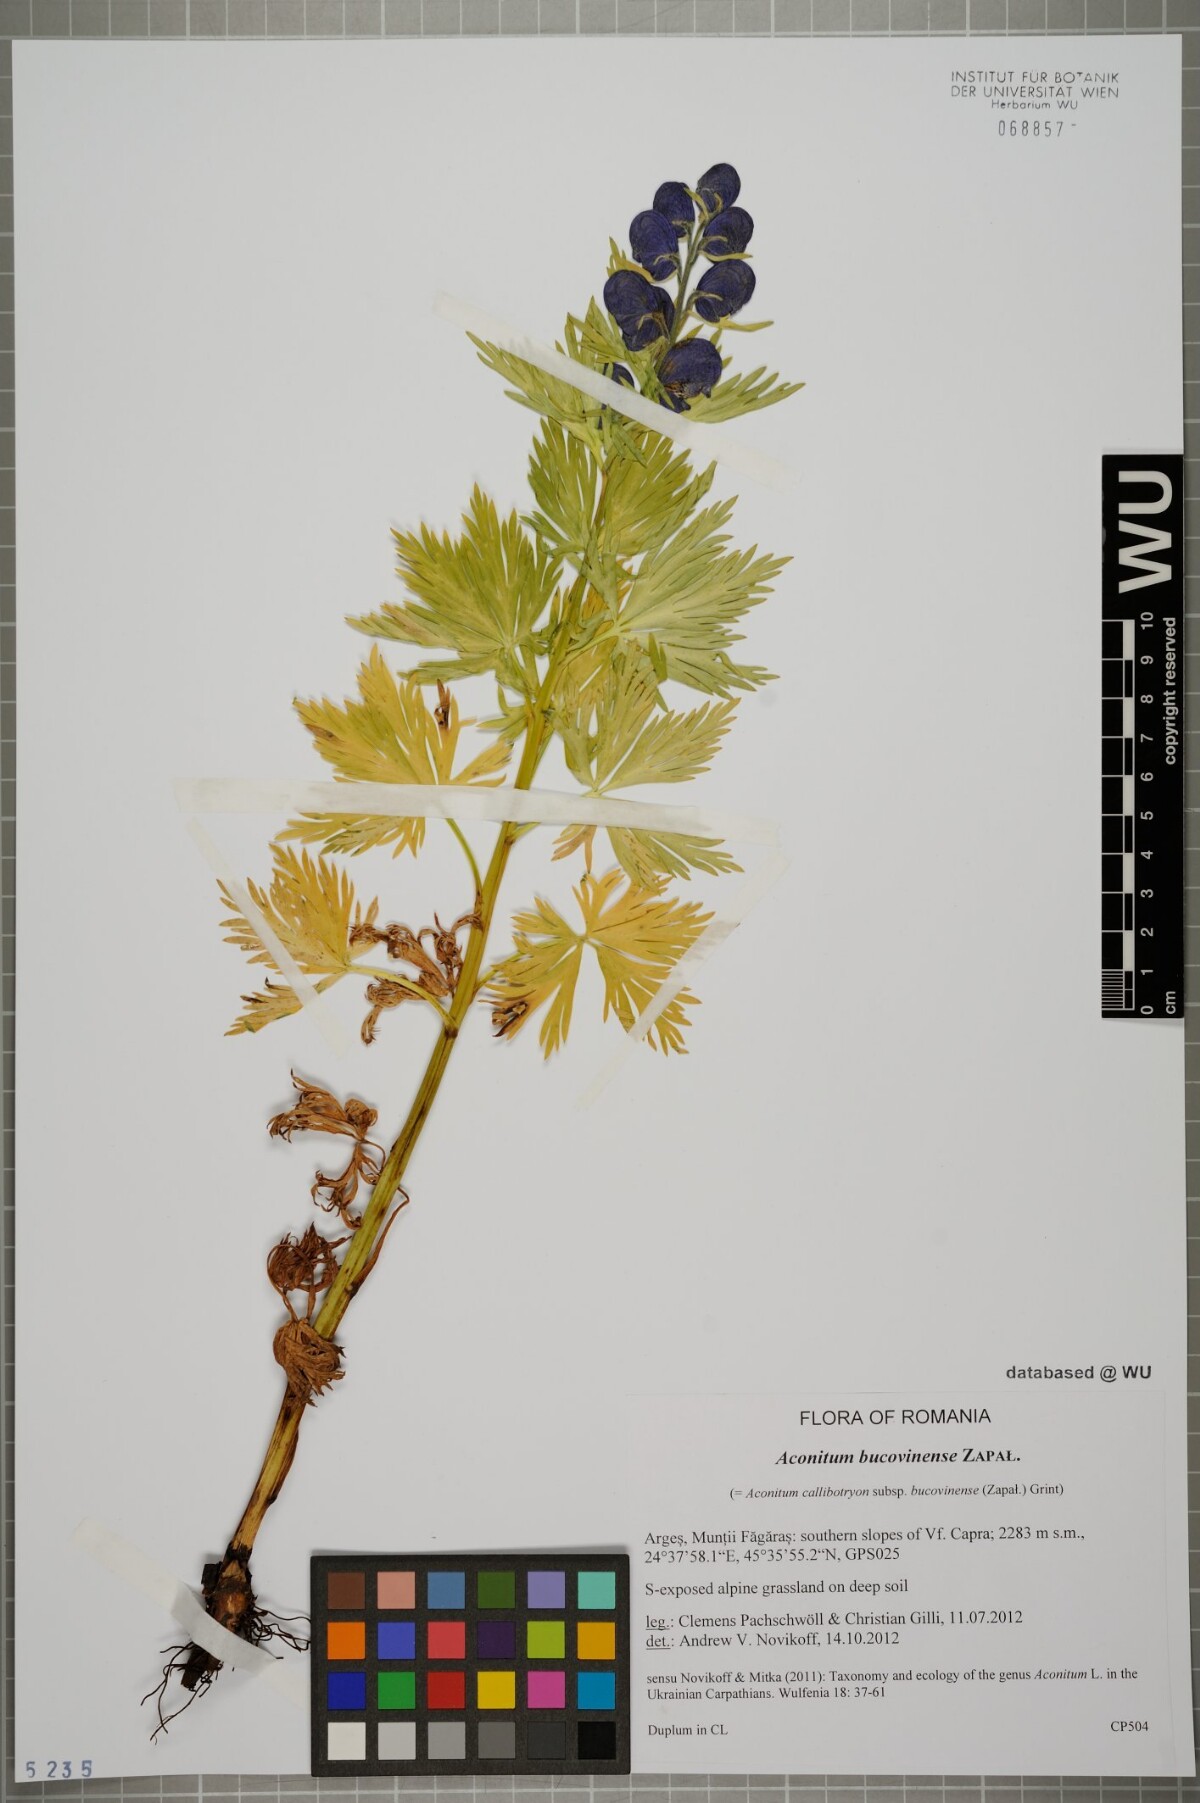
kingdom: Plantae
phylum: Tracheophyta
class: Magnoliopsida
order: Ranunculales
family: Ranunculaceae
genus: Aconitum
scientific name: Aconitum bucovinense
